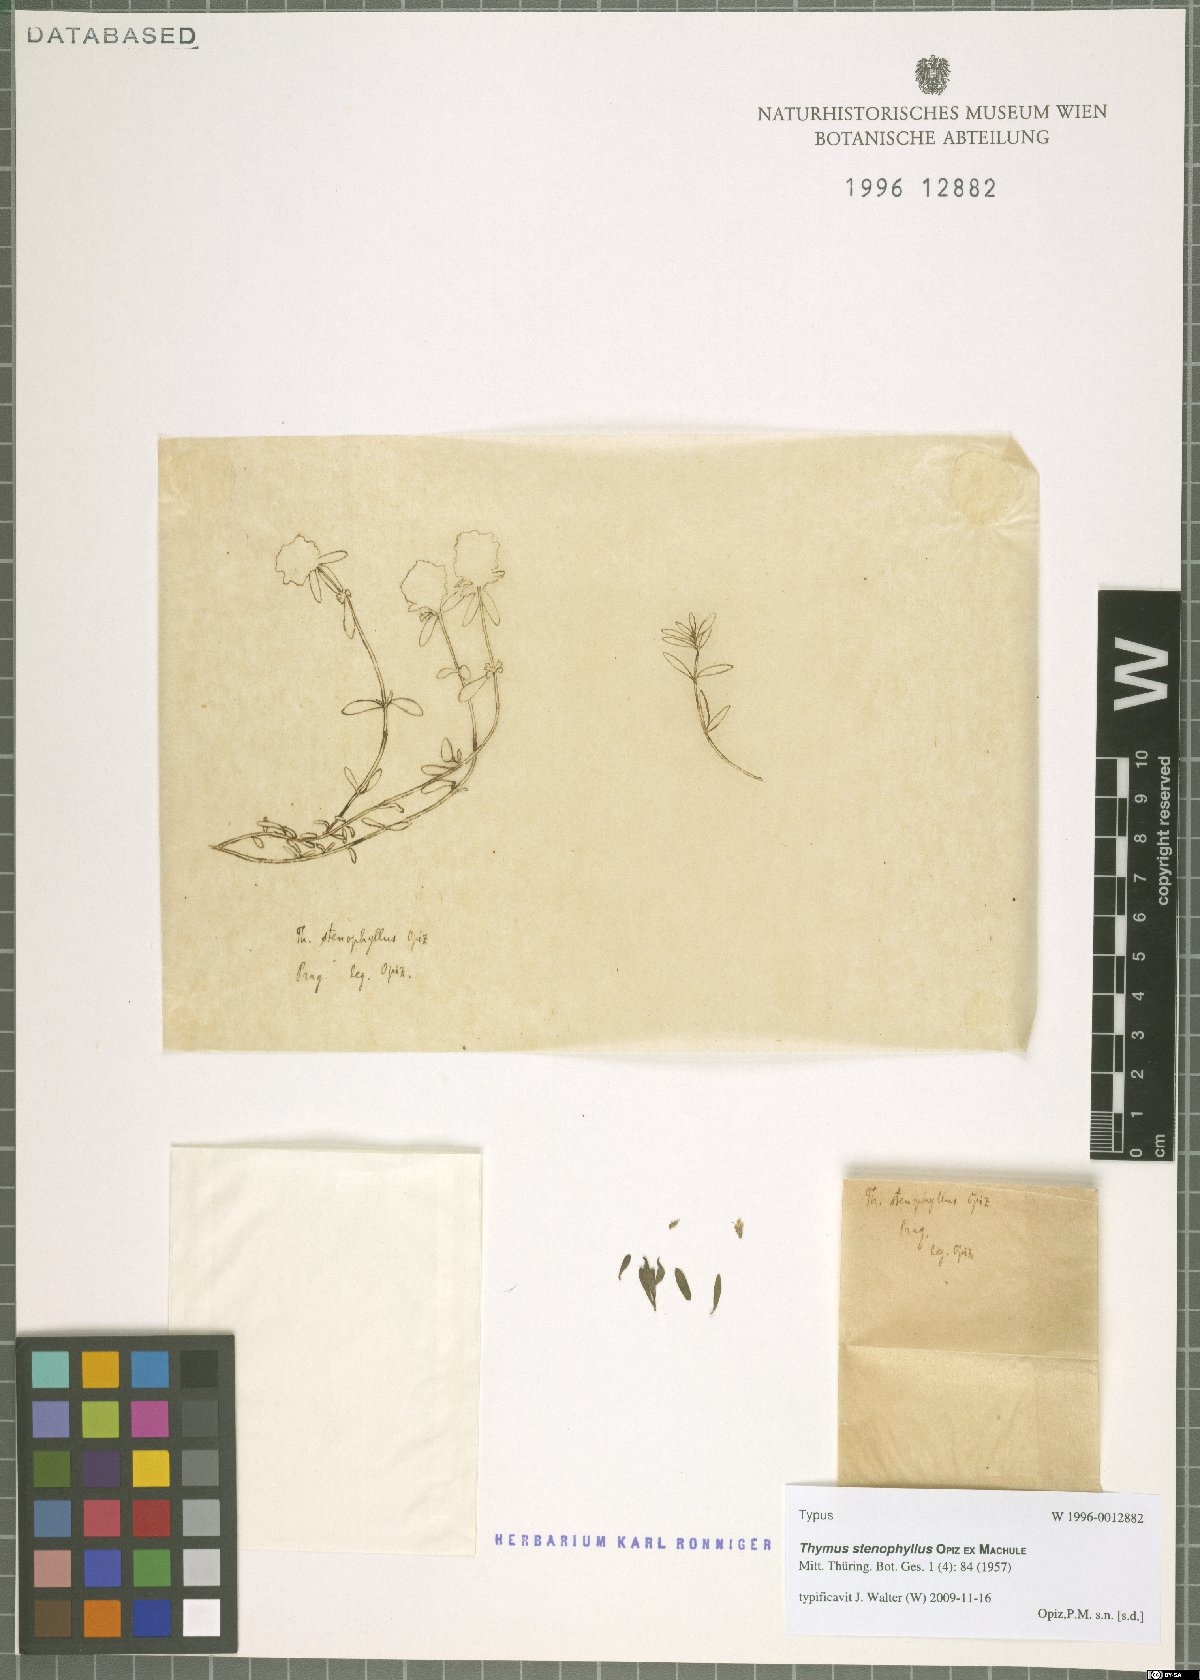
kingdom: Plantae
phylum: Tracheophyta
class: Magnoliopsida
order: Lamiales
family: Lamiaceae
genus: Thymus
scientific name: Thymus odoratissimus
